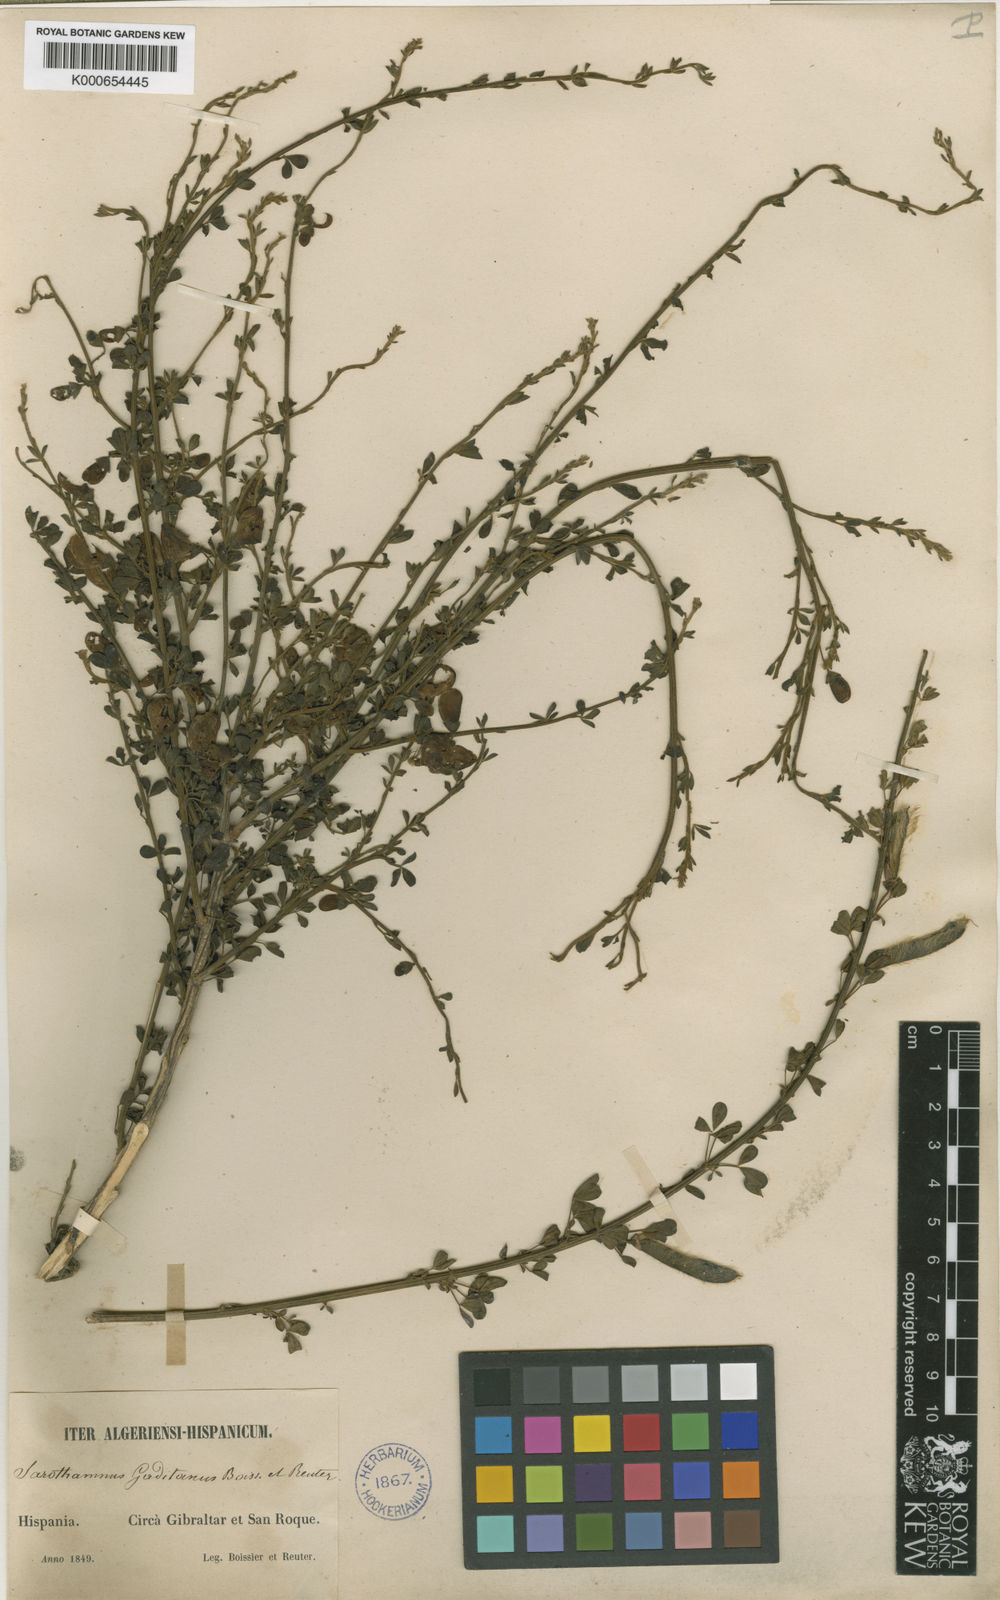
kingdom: Plantae
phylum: Tracheophyta
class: Magnoliopsida
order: Fabales
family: Fabaceae
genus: Cytisus
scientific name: Cytisus arboreus
